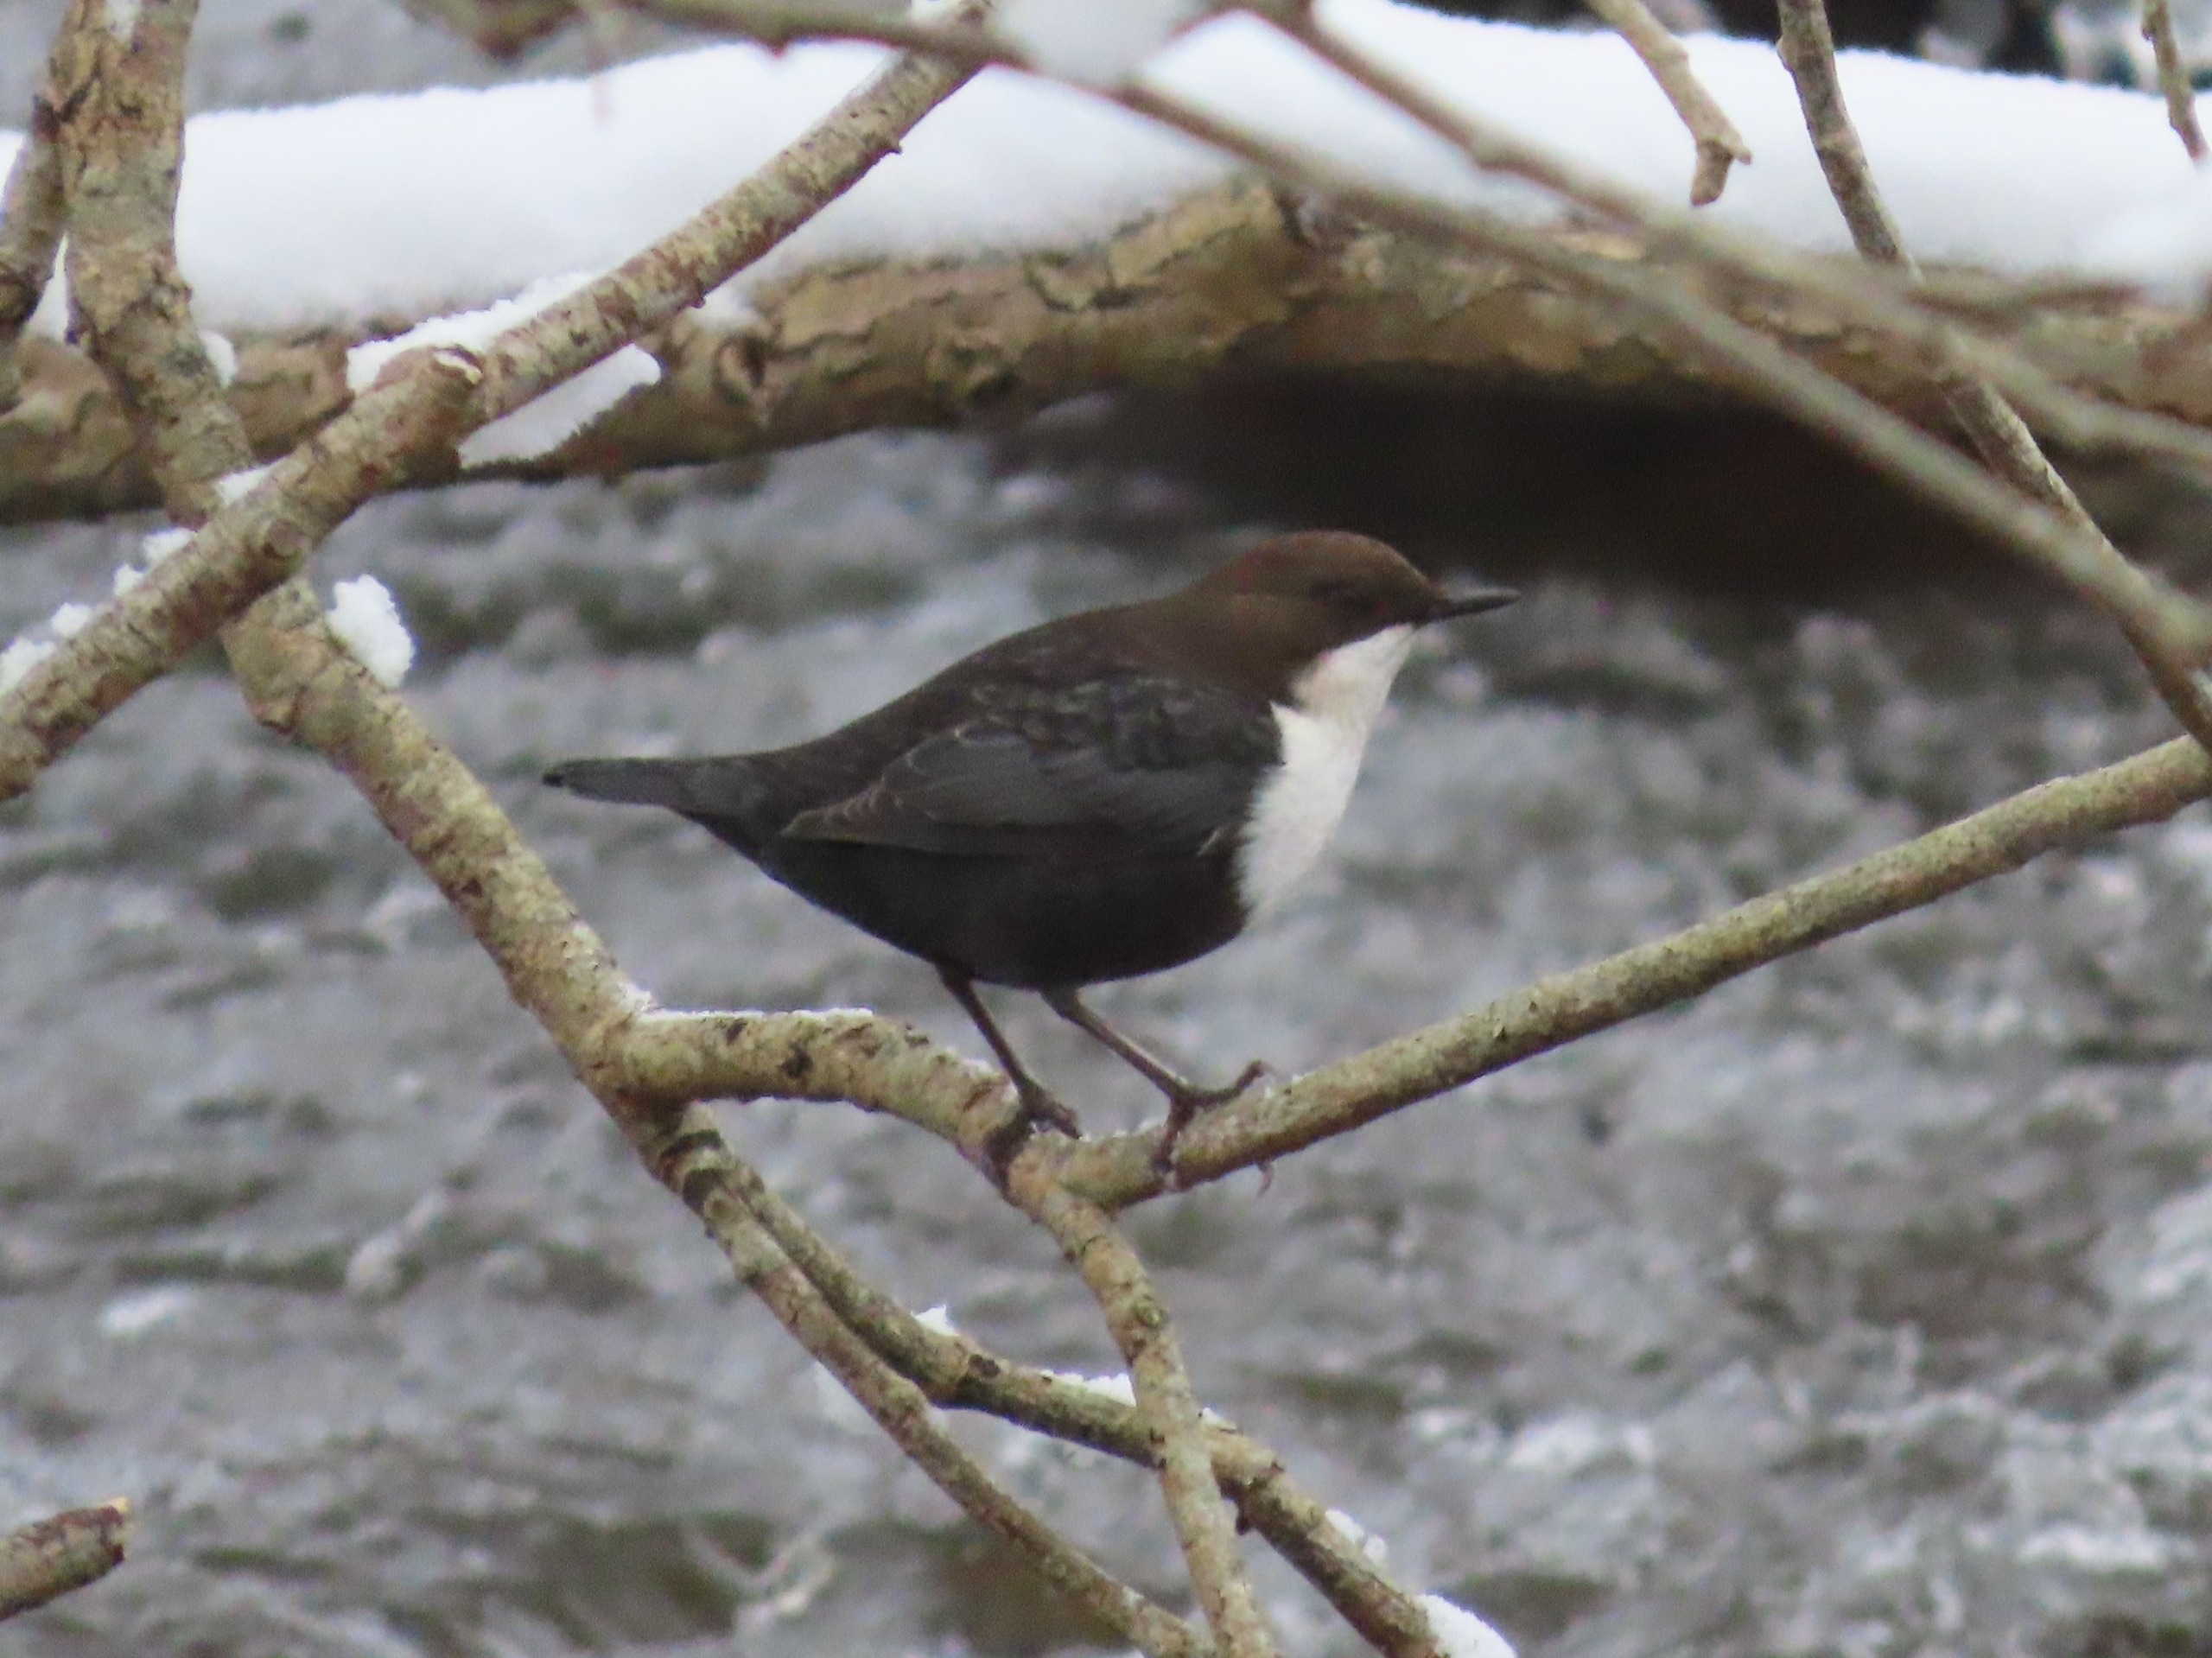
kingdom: Animalia
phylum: Chordata
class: Aves
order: Passeriformes
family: Cinclidae
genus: Cinclus
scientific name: Cinclus cinclus
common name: Vandstær
